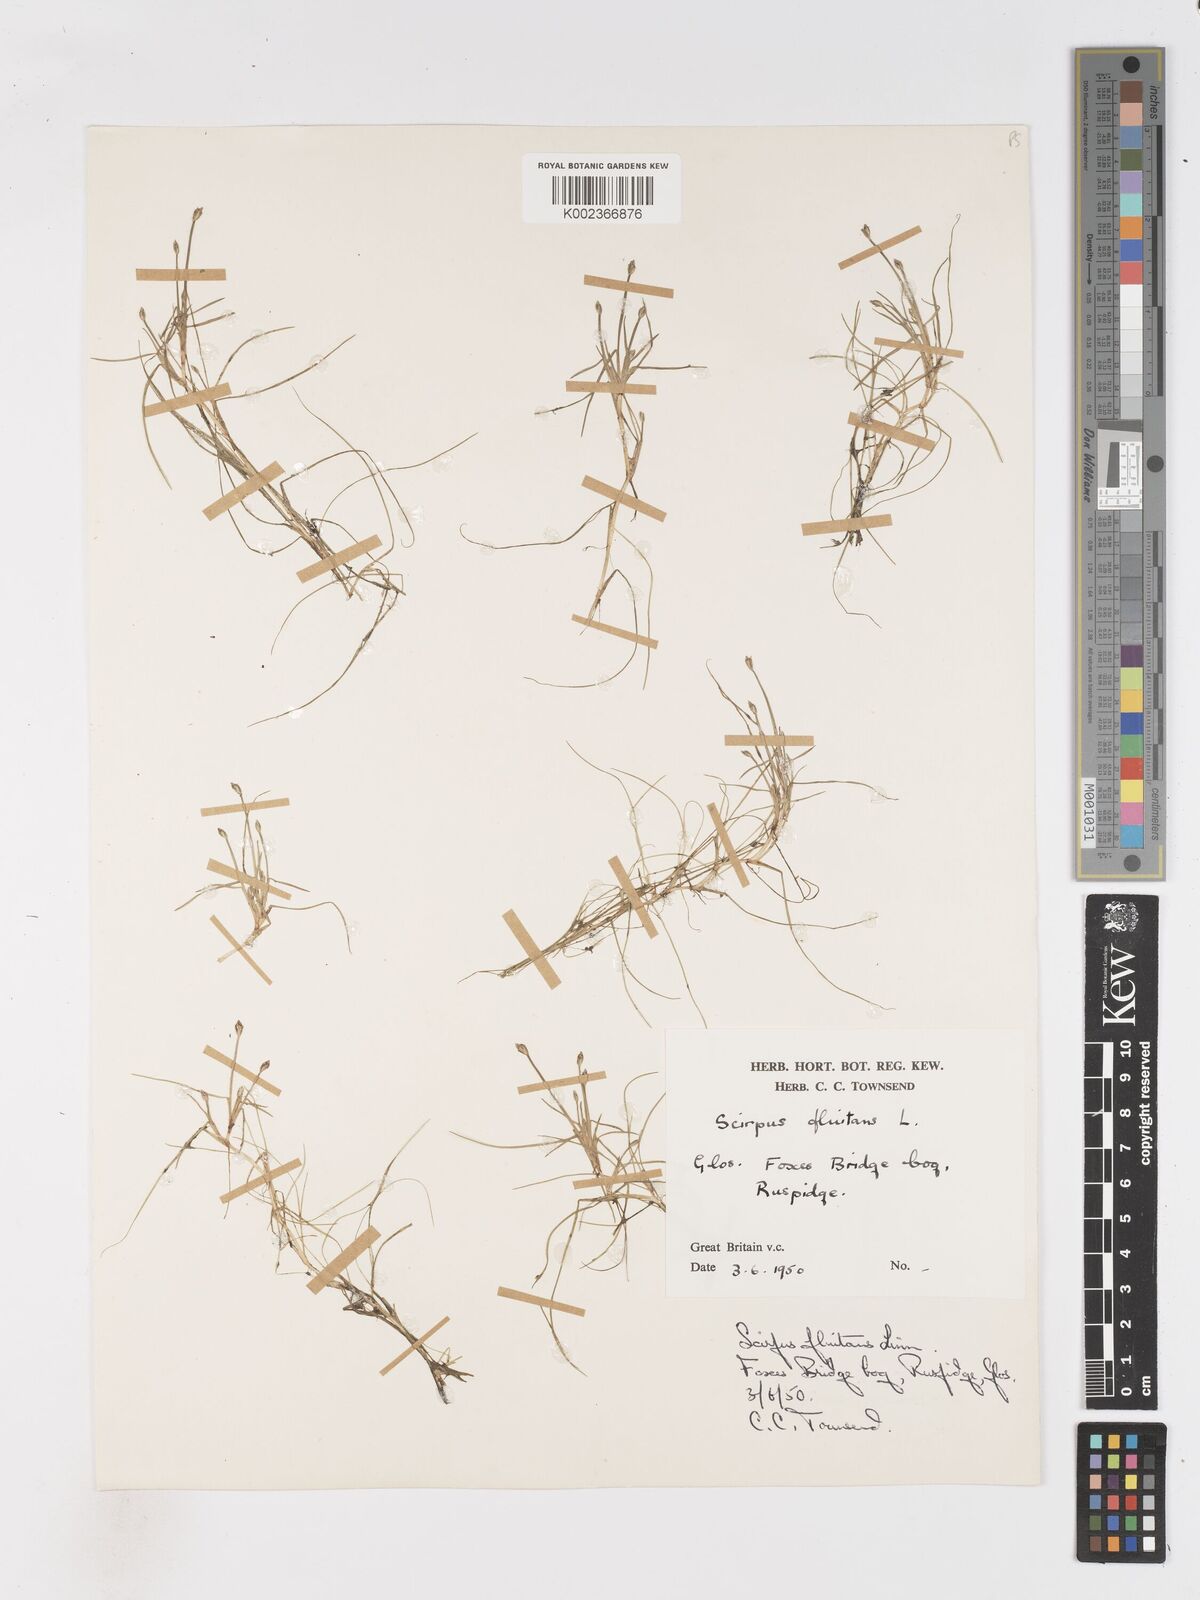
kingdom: Plantae
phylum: Tracheophyta
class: Liliopsida
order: Poales
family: Cyperaceae
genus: Isolepis
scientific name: Isolepis fluitans
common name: Floating club-rush
